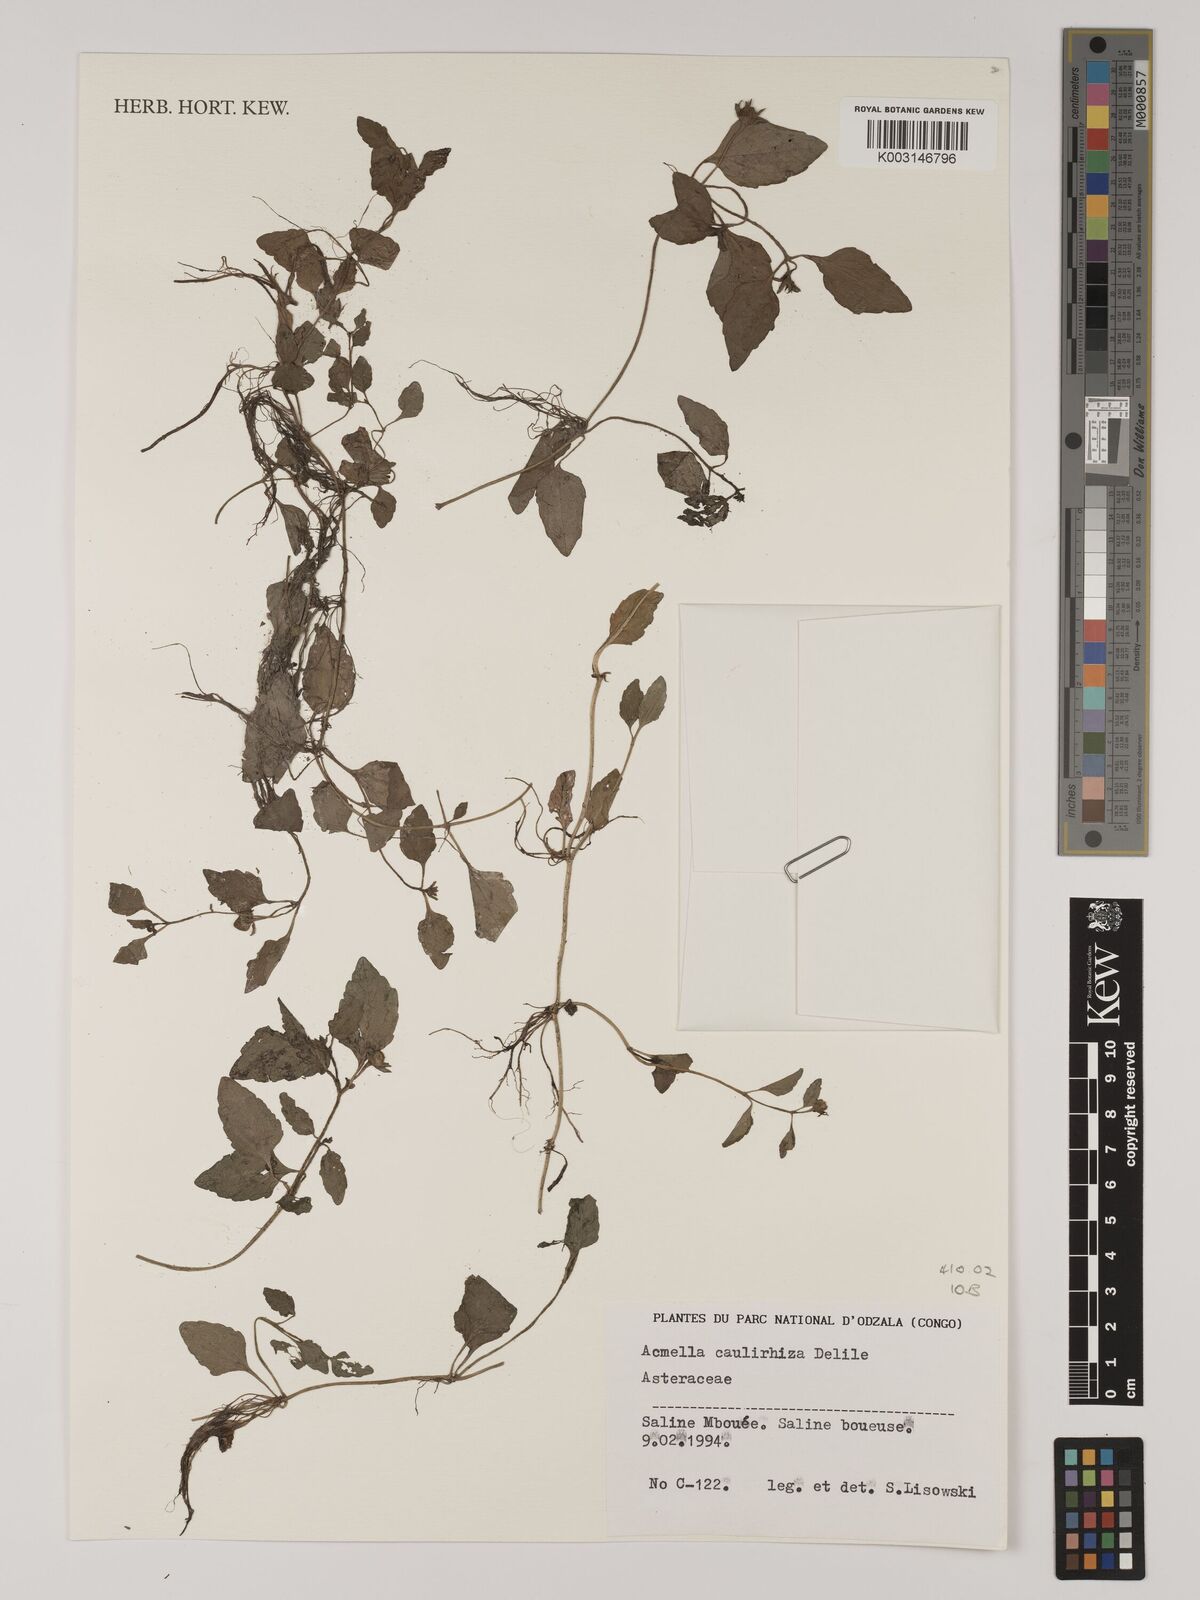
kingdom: Plantae
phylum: Tracheophyta
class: Magnoliopsida
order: Asterales
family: Asteraceae
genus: Acmella
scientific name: Acmella caulirhiza
